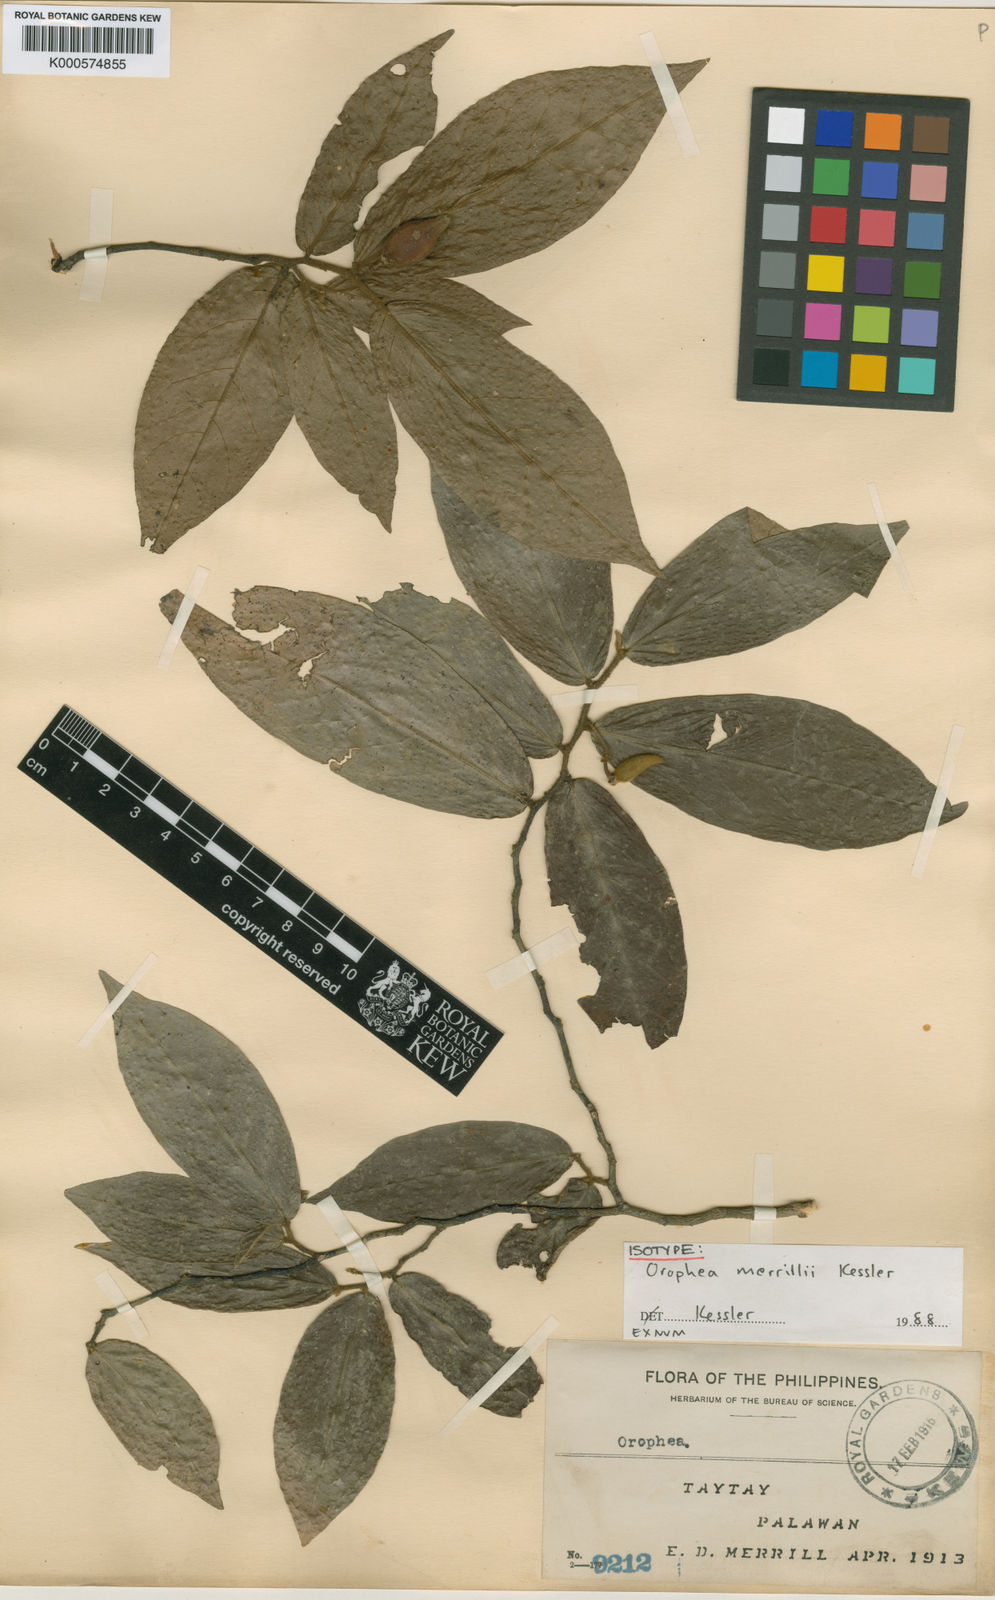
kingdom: Plantae
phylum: Tracheophyta
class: Magnoliopsida
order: Magnoliales
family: Annonaceae
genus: Orophea
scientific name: Orophea merrillii
